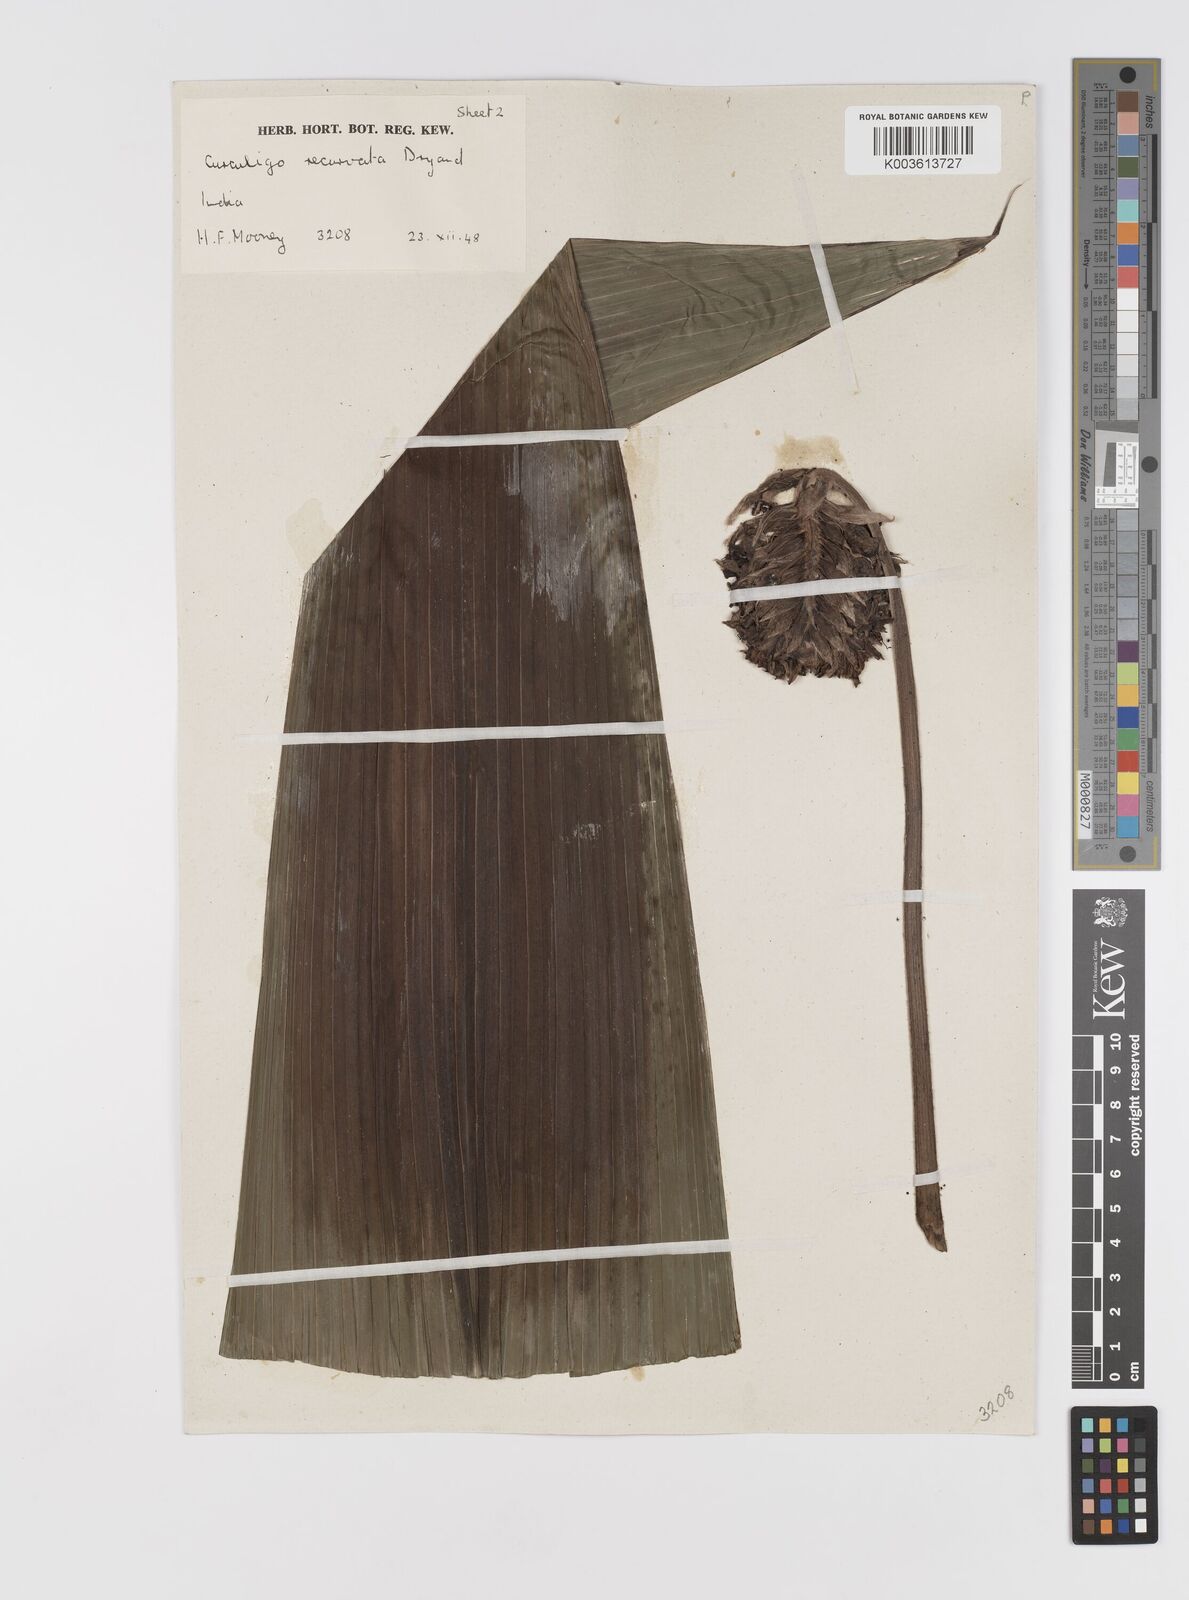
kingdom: Plantae
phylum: Tracheophyta
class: Liliopsida
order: Asparagales
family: Hypoxidaceae
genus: Curculigo
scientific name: Curculigo capitulata
